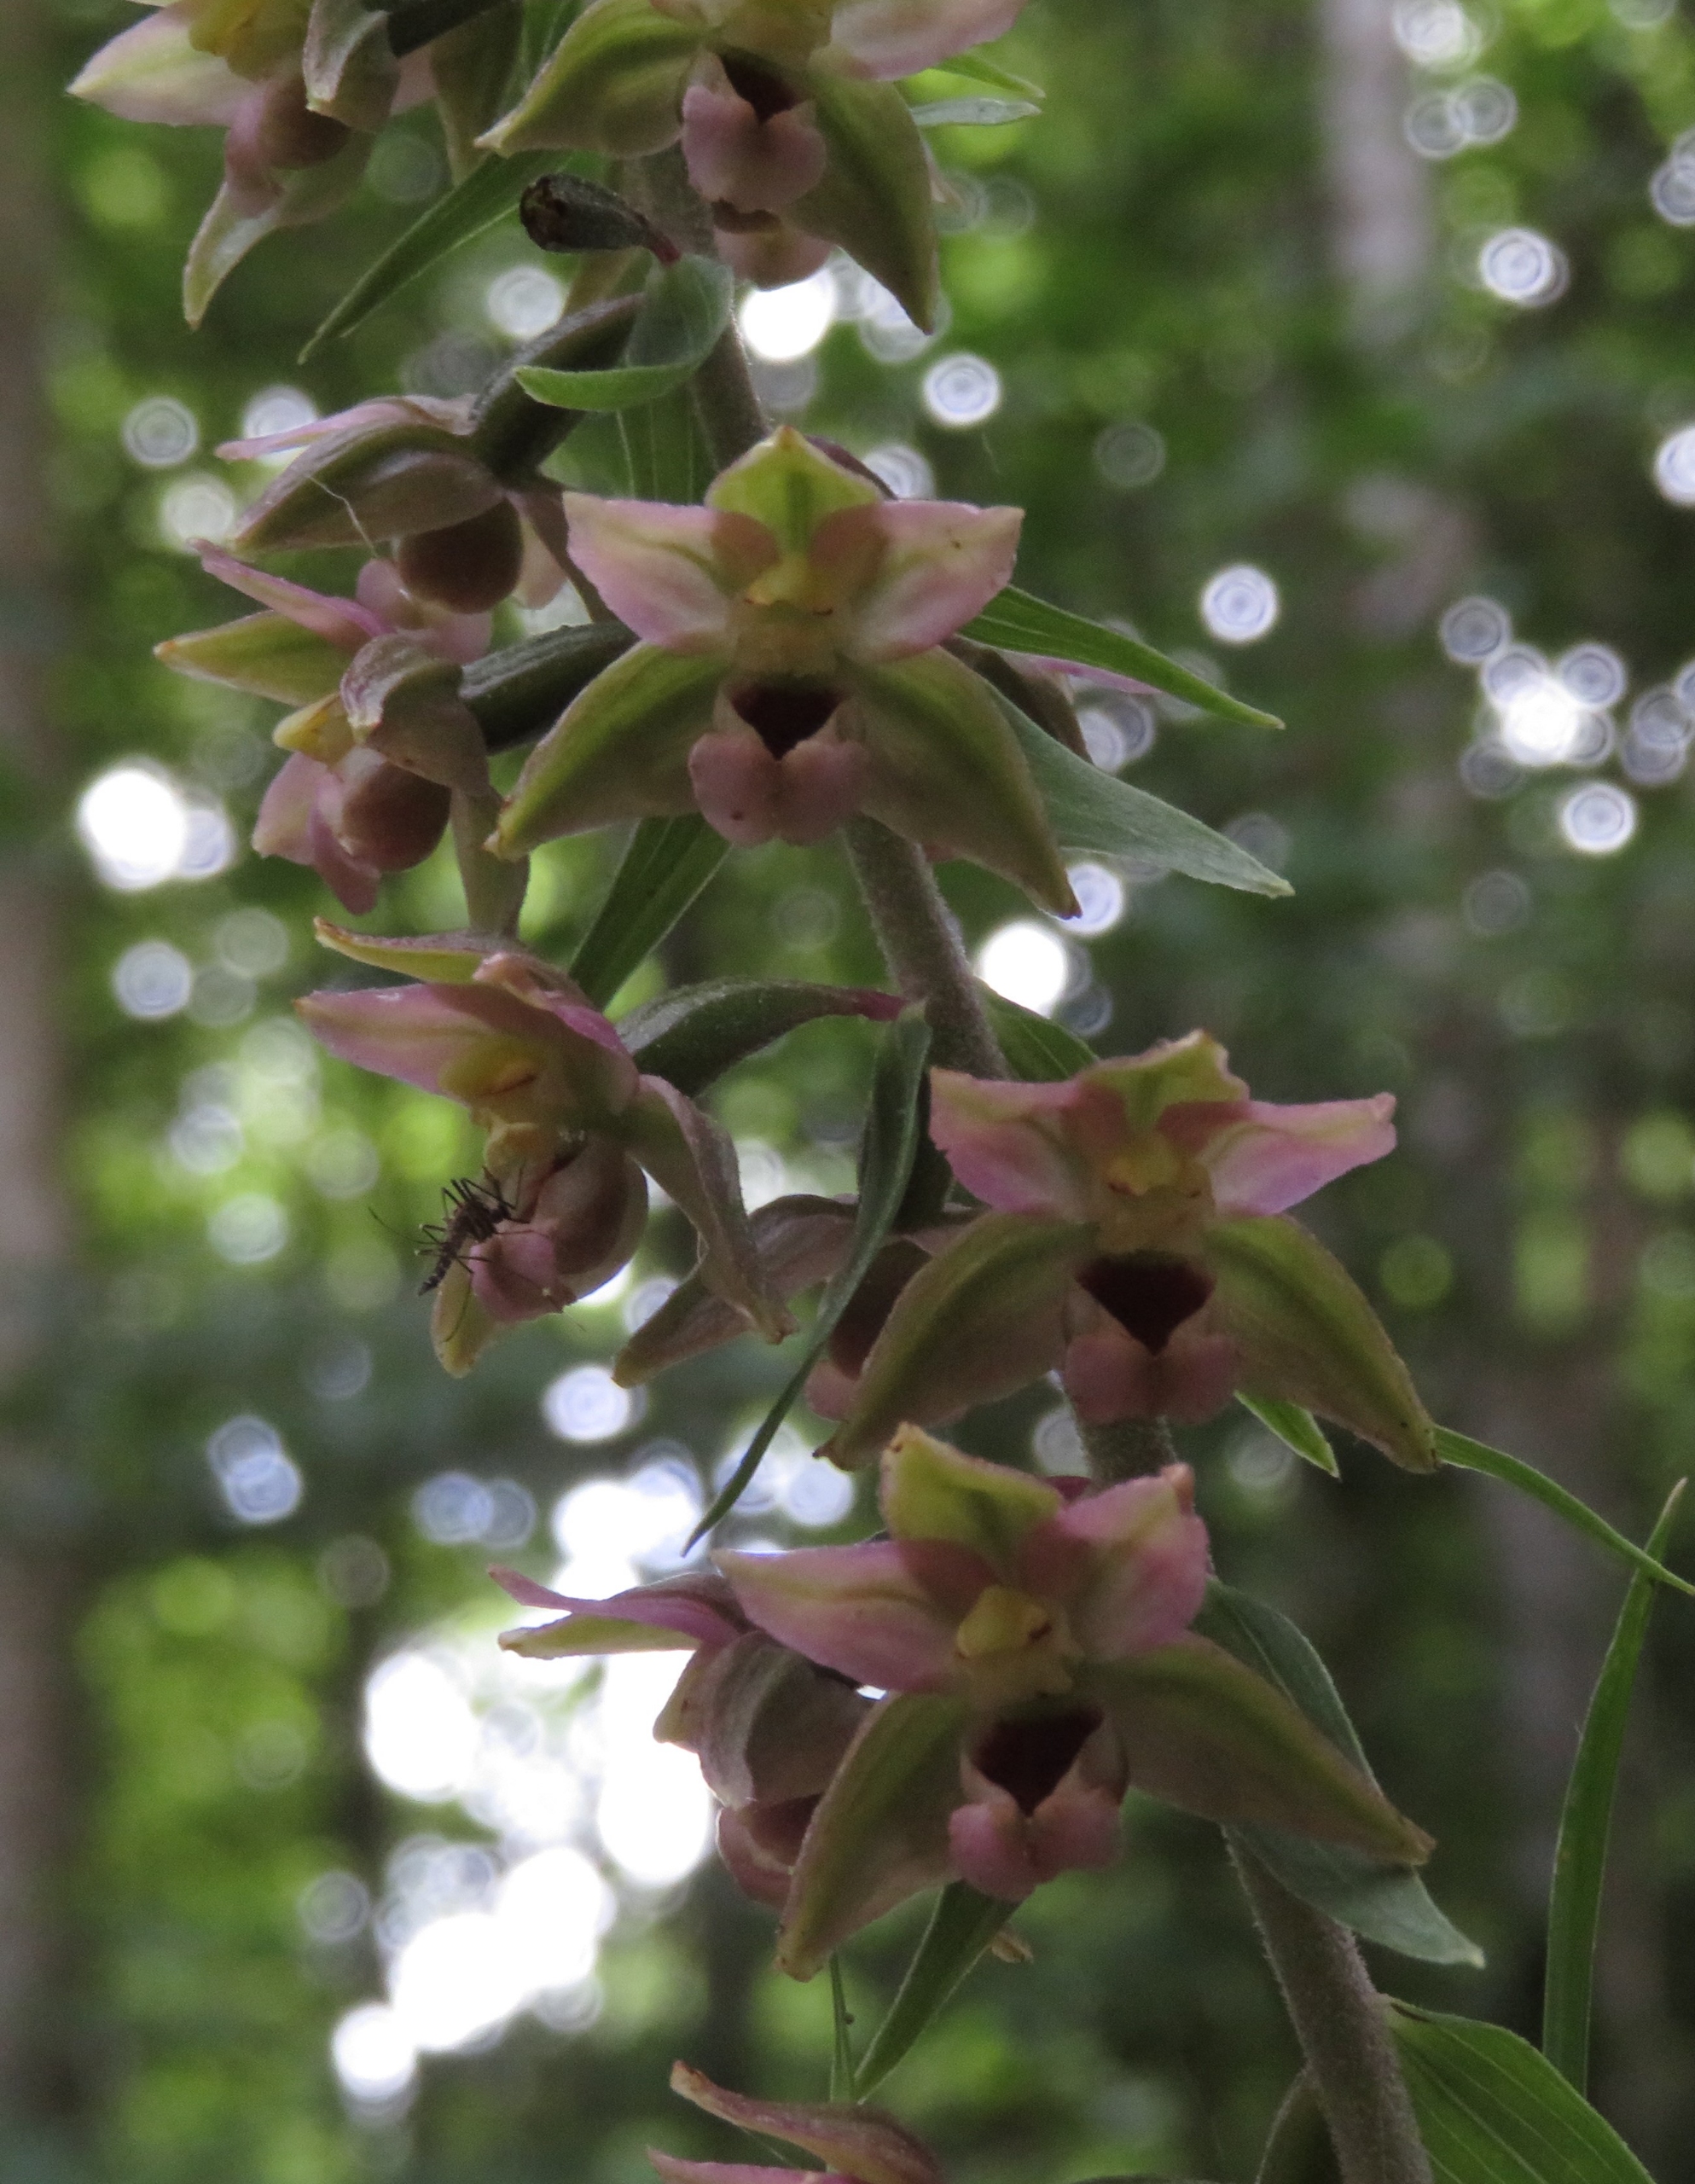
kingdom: Plantae
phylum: Tracheophyta
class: Liliopsida
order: Asparagales
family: Orchidaceae
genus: Epipactis
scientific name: Epipactis helleborine
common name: Skov-hullæbe (underart)
